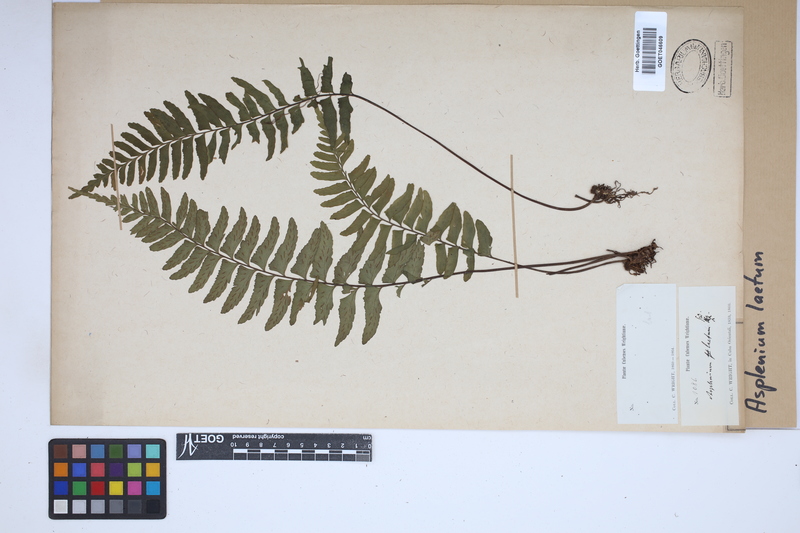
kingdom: Plantae
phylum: Tracheophyta
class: Polypodiopsida
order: Polypodiales
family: Aspleniaceae
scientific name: Aspleniaceae
